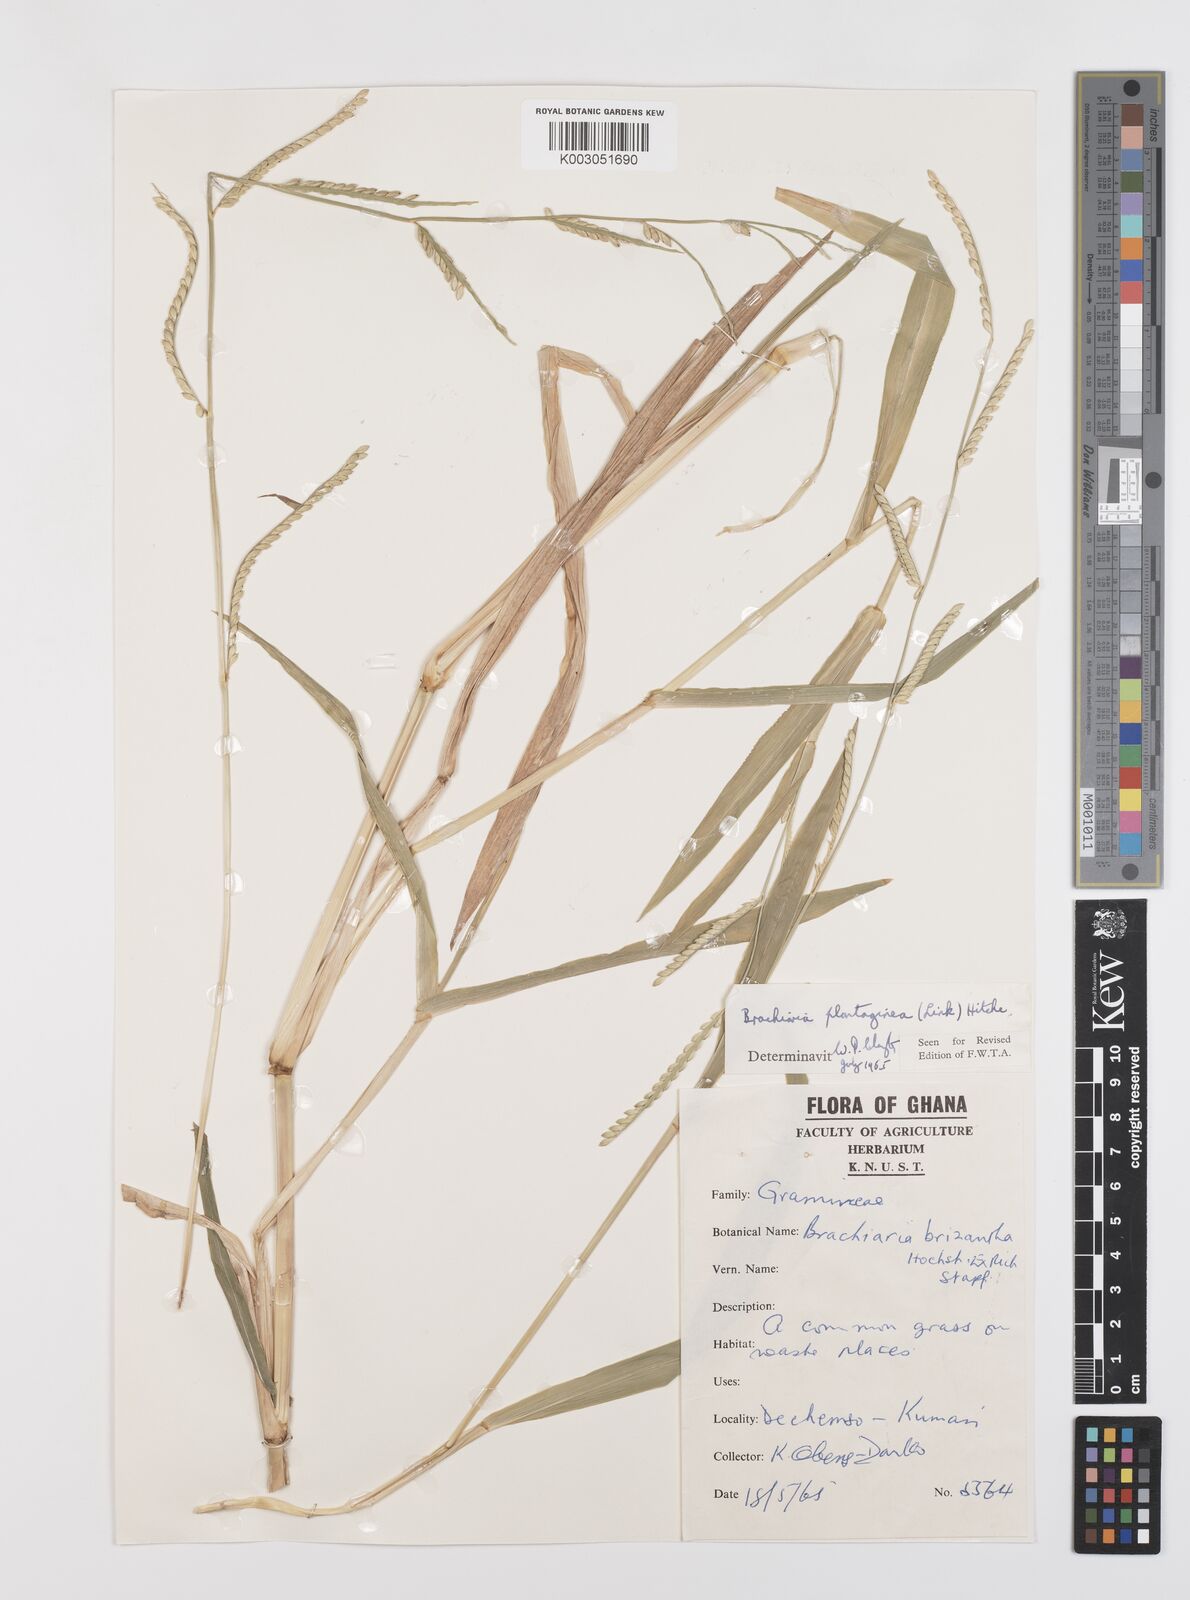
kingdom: Plantae
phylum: Tracheophyta
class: Liliopsida
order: Poales
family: Poaceae
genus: Urochloa
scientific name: Urochloa plantaginea
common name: Plantain signalgrass
